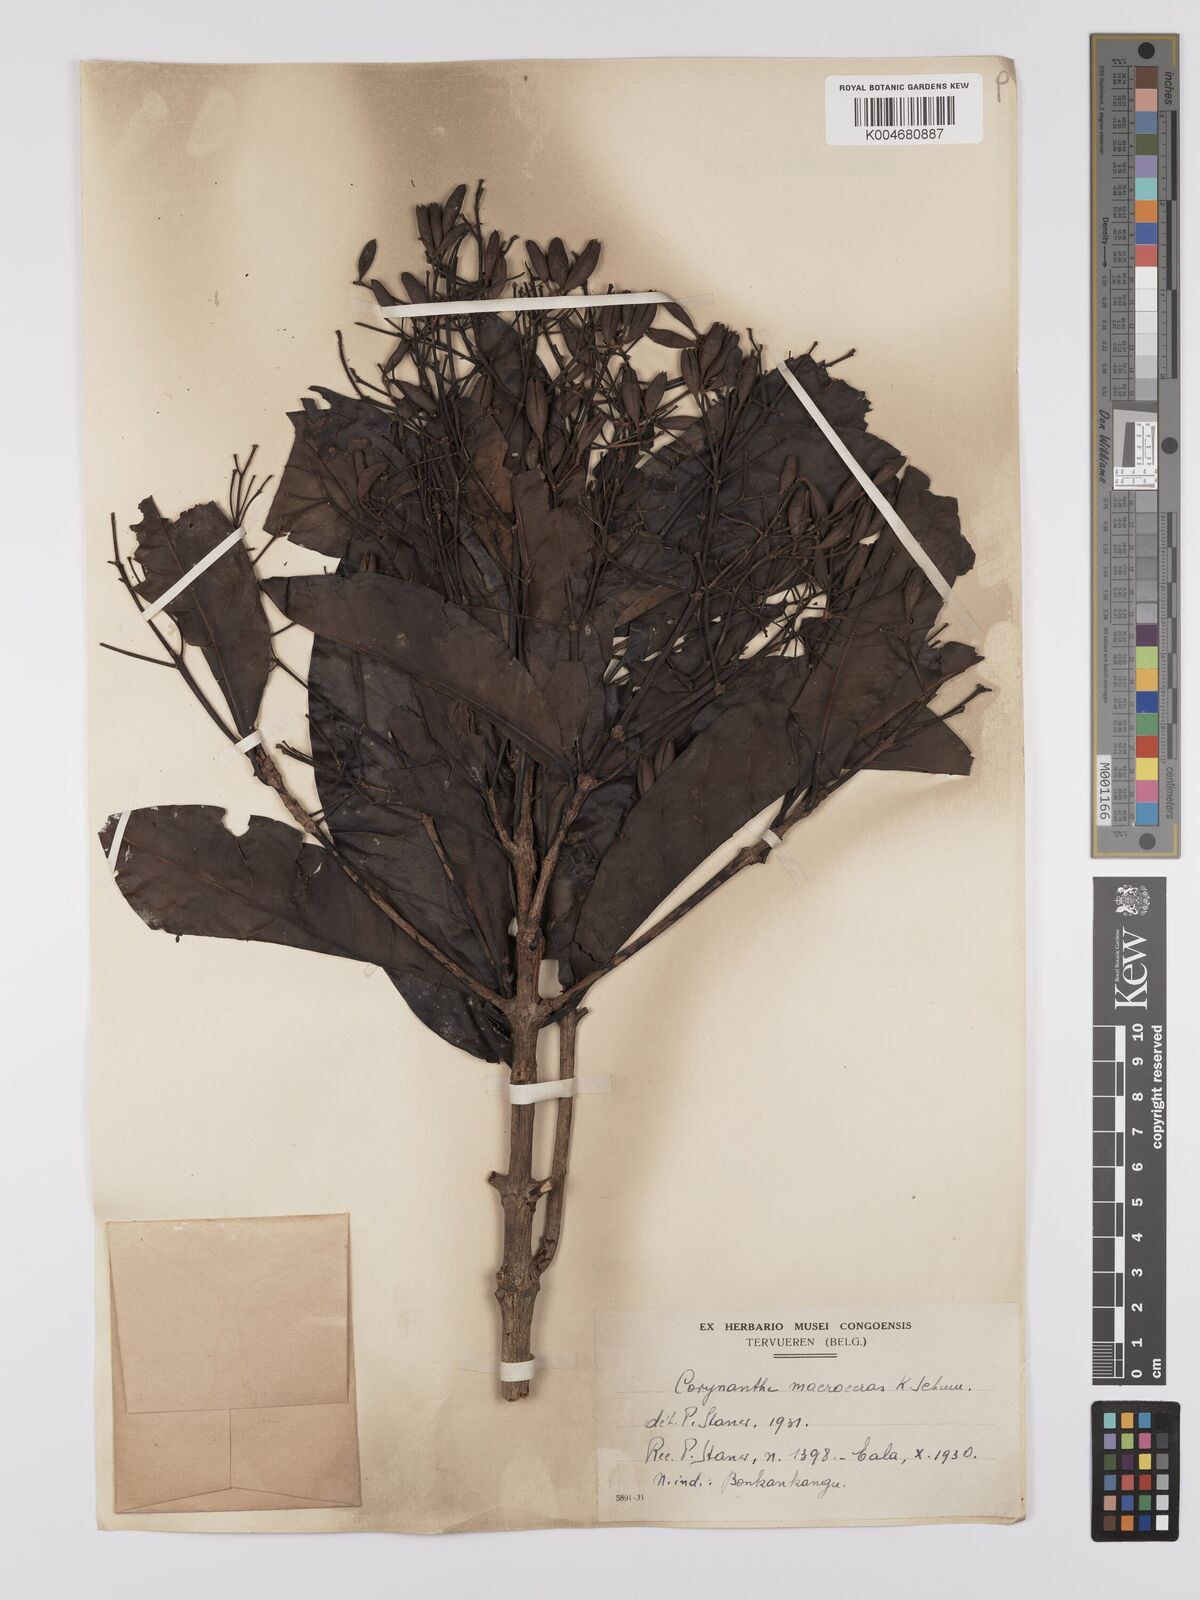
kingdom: Plantae
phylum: Tracheophyta
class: Magnoliopsida
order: Gentianales
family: Rubiaceae
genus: Corynanthe
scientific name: Corynanthe macroceras
